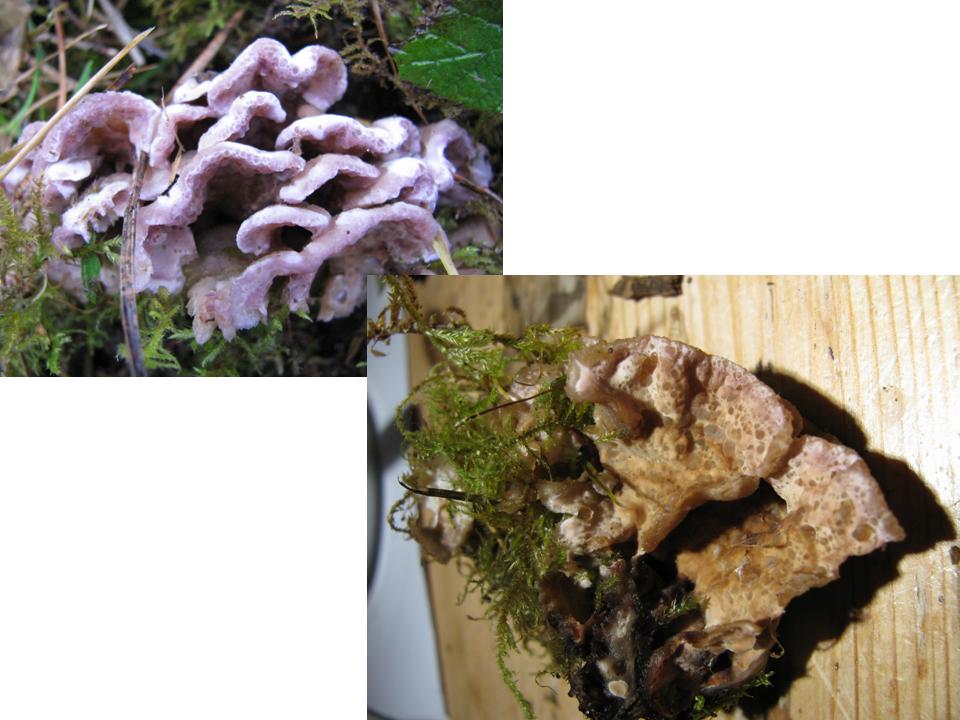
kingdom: Fungi
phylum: Basidiomycota
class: Agaricomycetes
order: Agaricales
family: Cyphellaceae
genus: Chondrostereum
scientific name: Chondrostereum purpureum
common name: purpurlædersvamp
